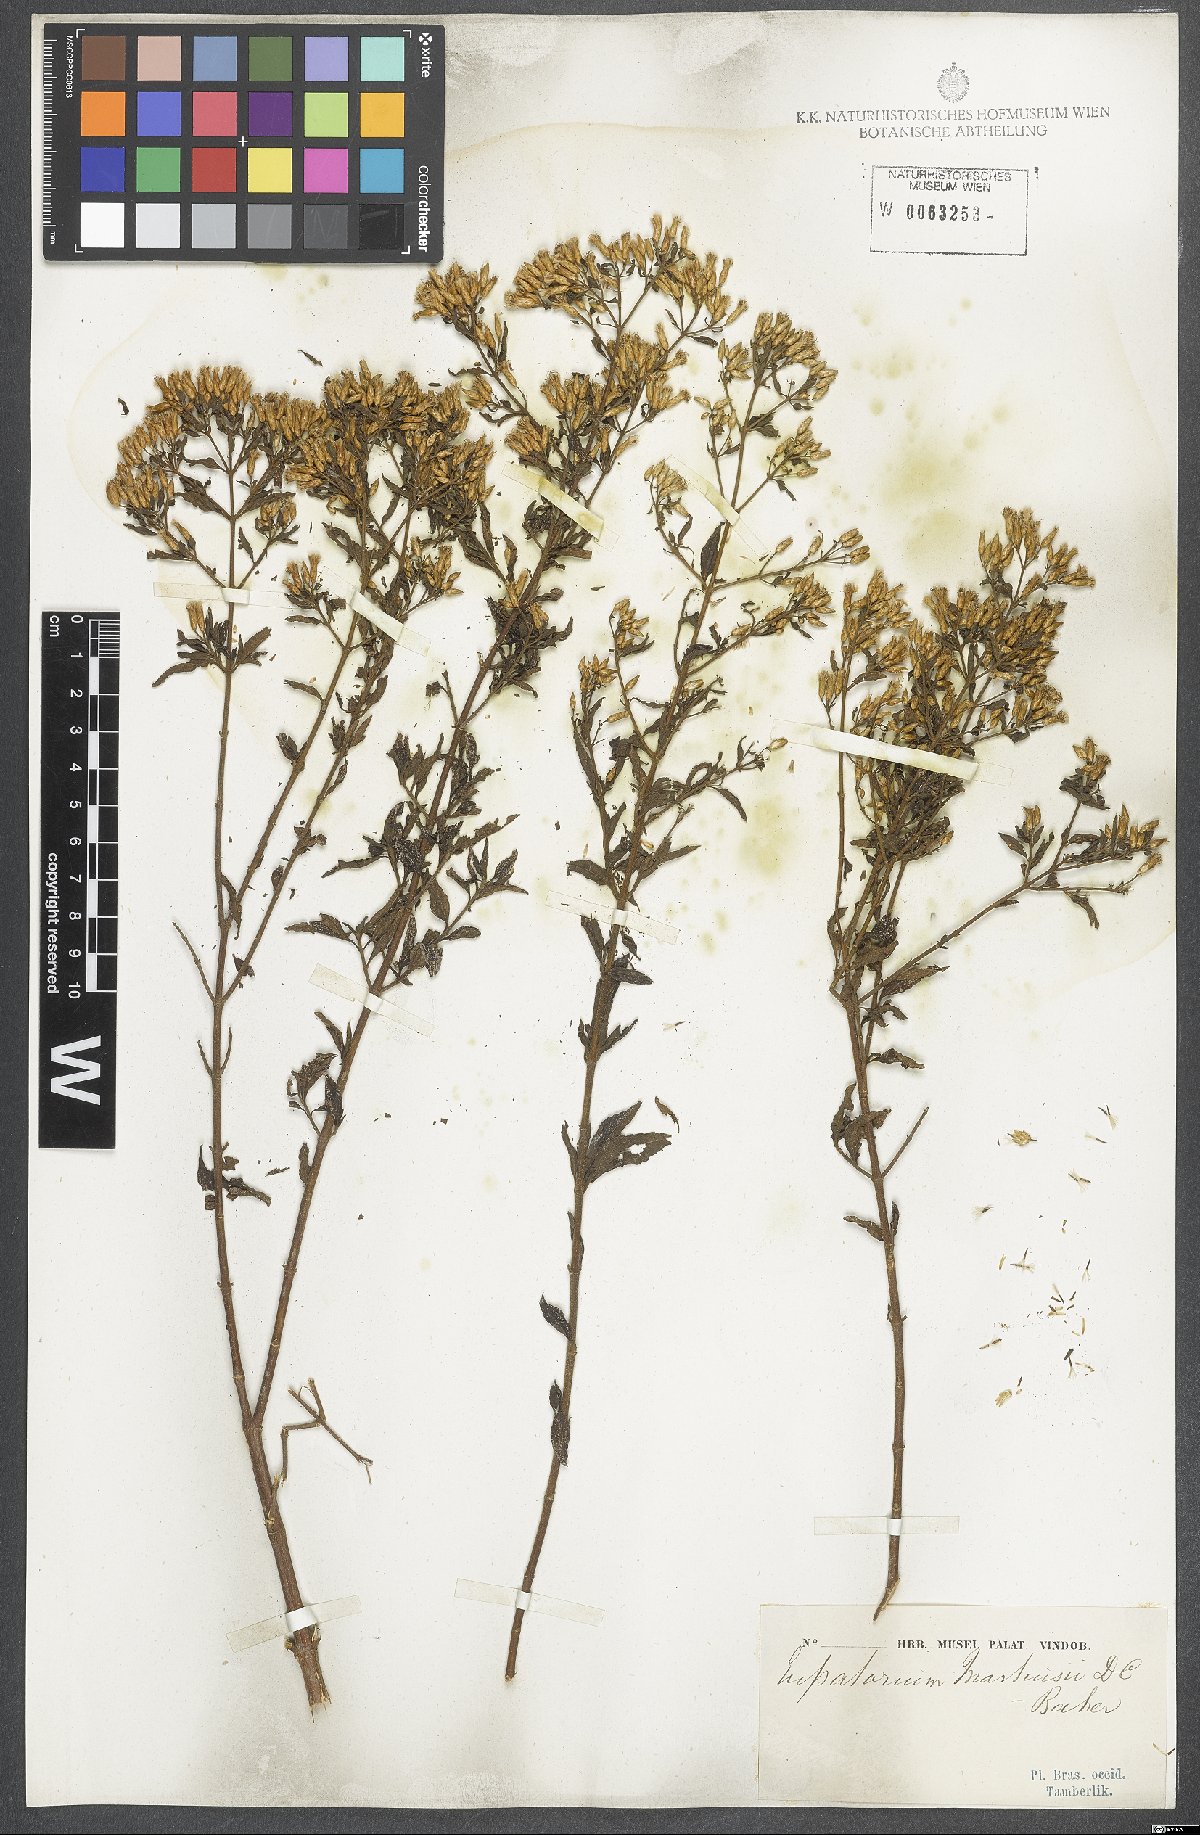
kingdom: Plantae
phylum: Tracheophyta
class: Magnoliopsida
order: Asterales
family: Asteraceae
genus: Chromolaena
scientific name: Chromolaena squalida
